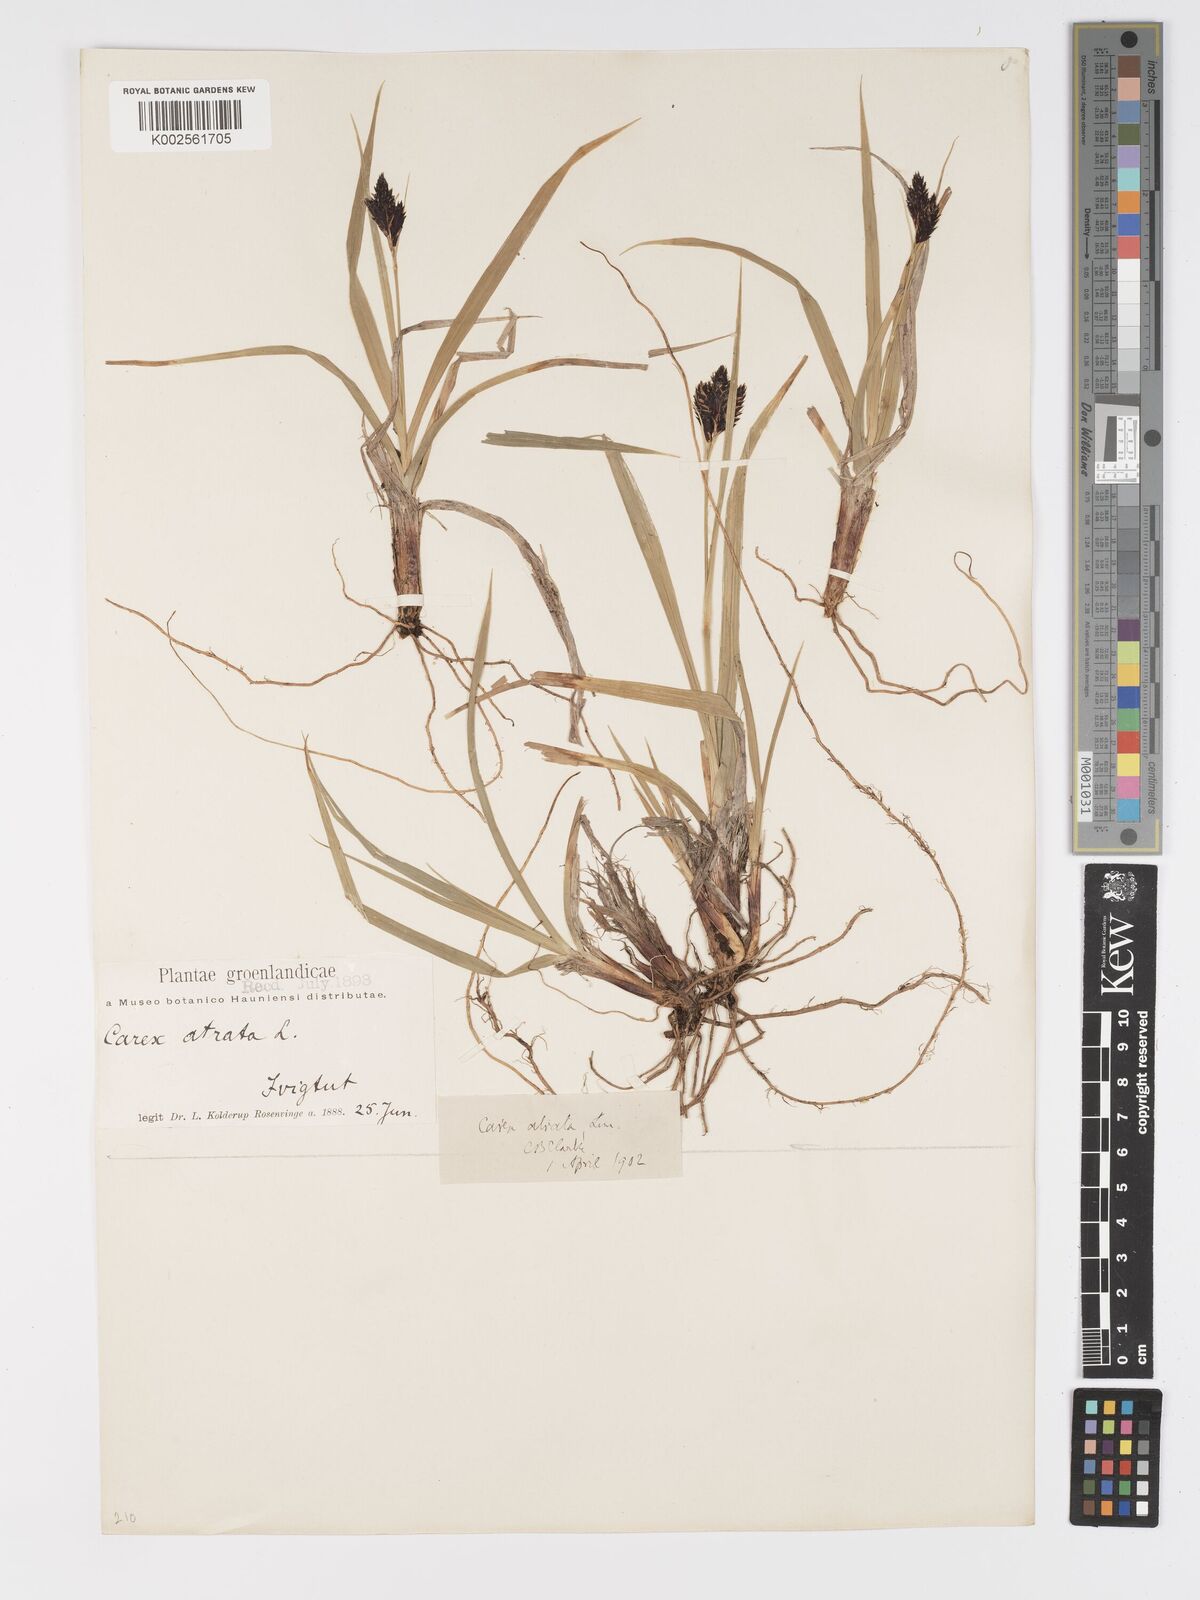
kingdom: Plantae
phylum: Tracheophyta
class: Liliopsida
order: Poales
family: Cyperaceae
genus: Carex
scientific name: Carex atrata
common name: Black alpine sedge
